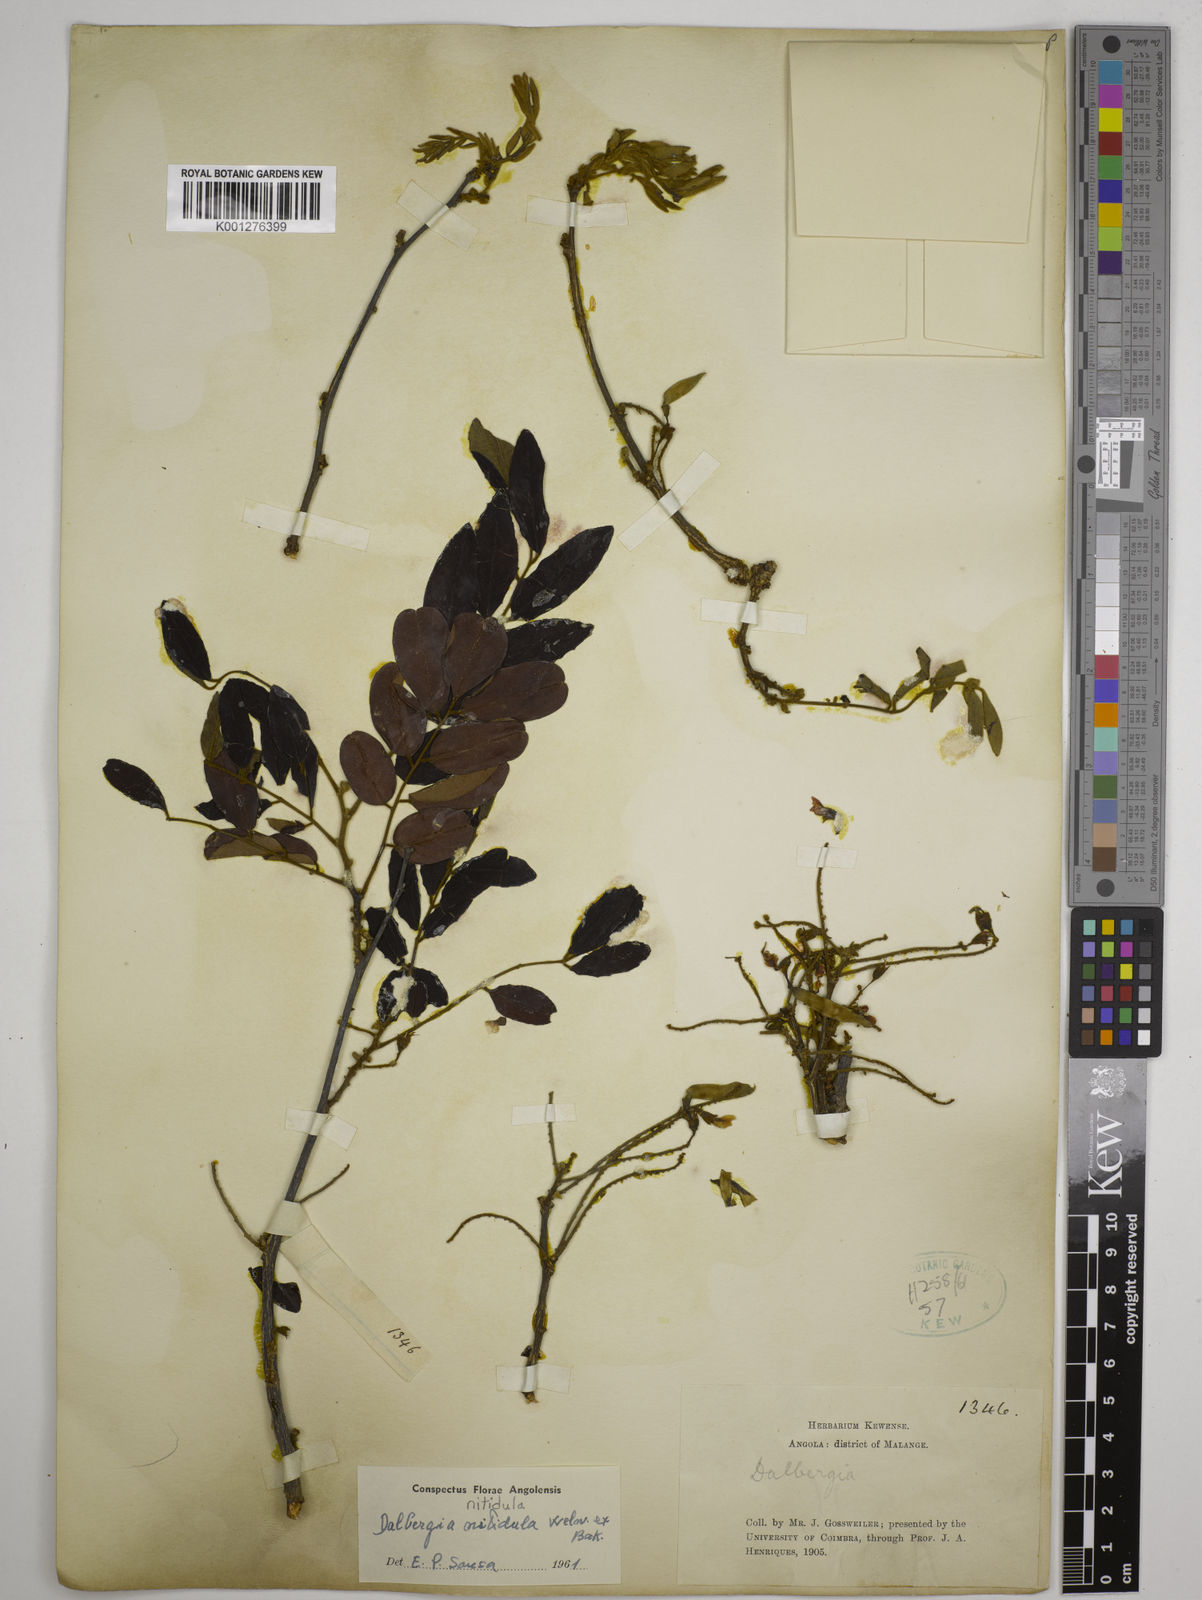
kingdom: Plantae
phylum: Tracheophyta
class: Magnoliopsida
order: Fabales
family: Fabaceae
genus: Dalbergia
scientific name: Dalbergia nitidula
